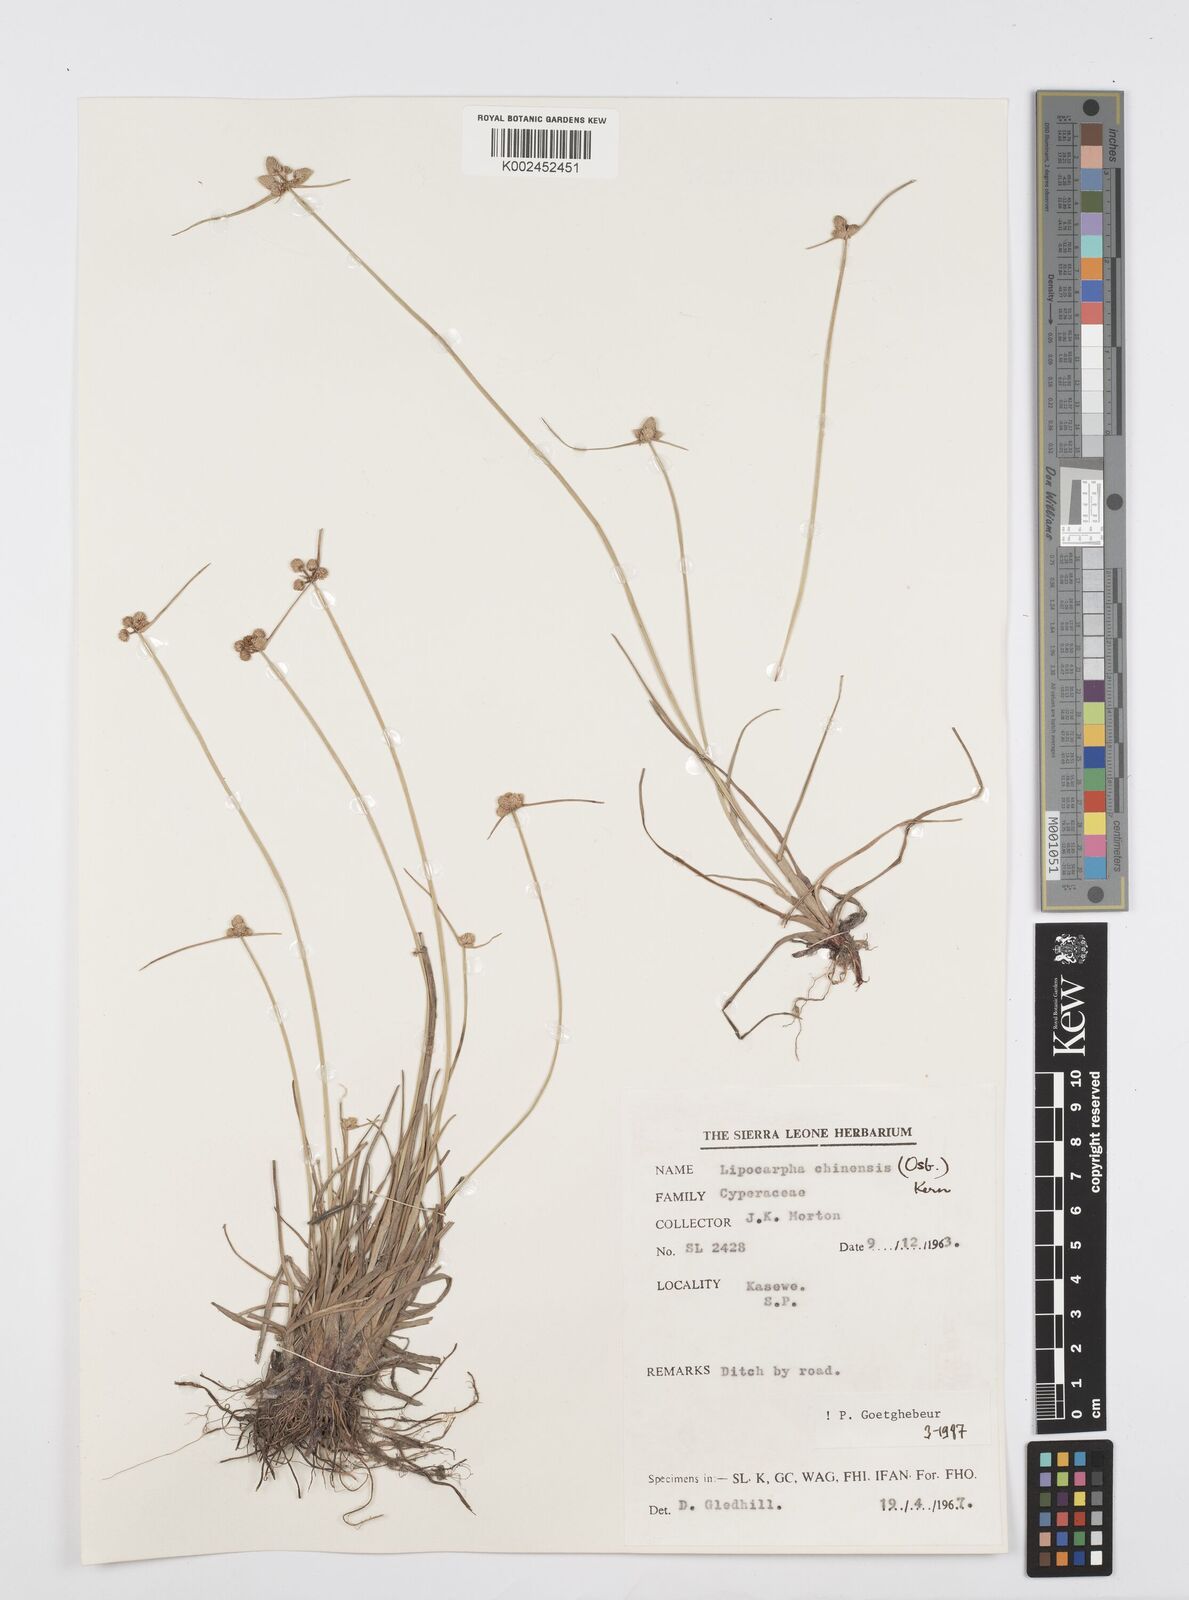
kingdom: Plantae
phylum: Tracheophyta
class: Liliopsida
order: Poales
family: Cyperaceae
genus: Cyperus
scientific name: Cyperus albescens
